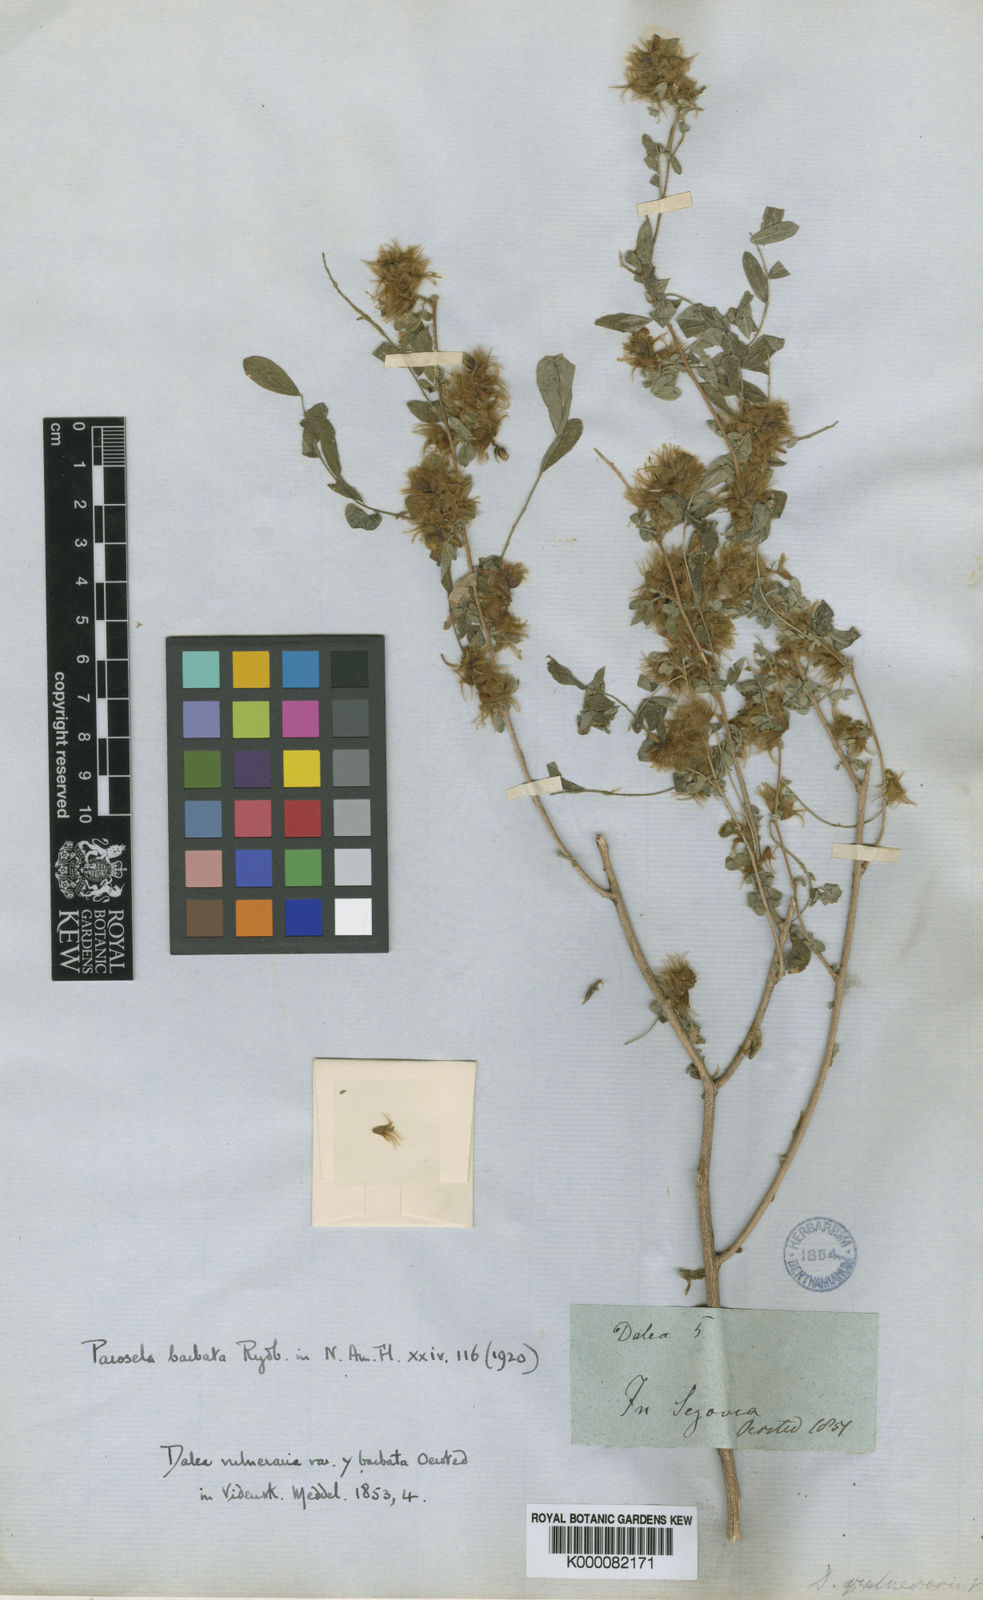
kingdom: Plantae
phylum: Tracheophyta
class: Magnoliopsida
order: Fabales
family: Fabaceae
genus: Dalea
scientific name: Dalea carthagenensis
